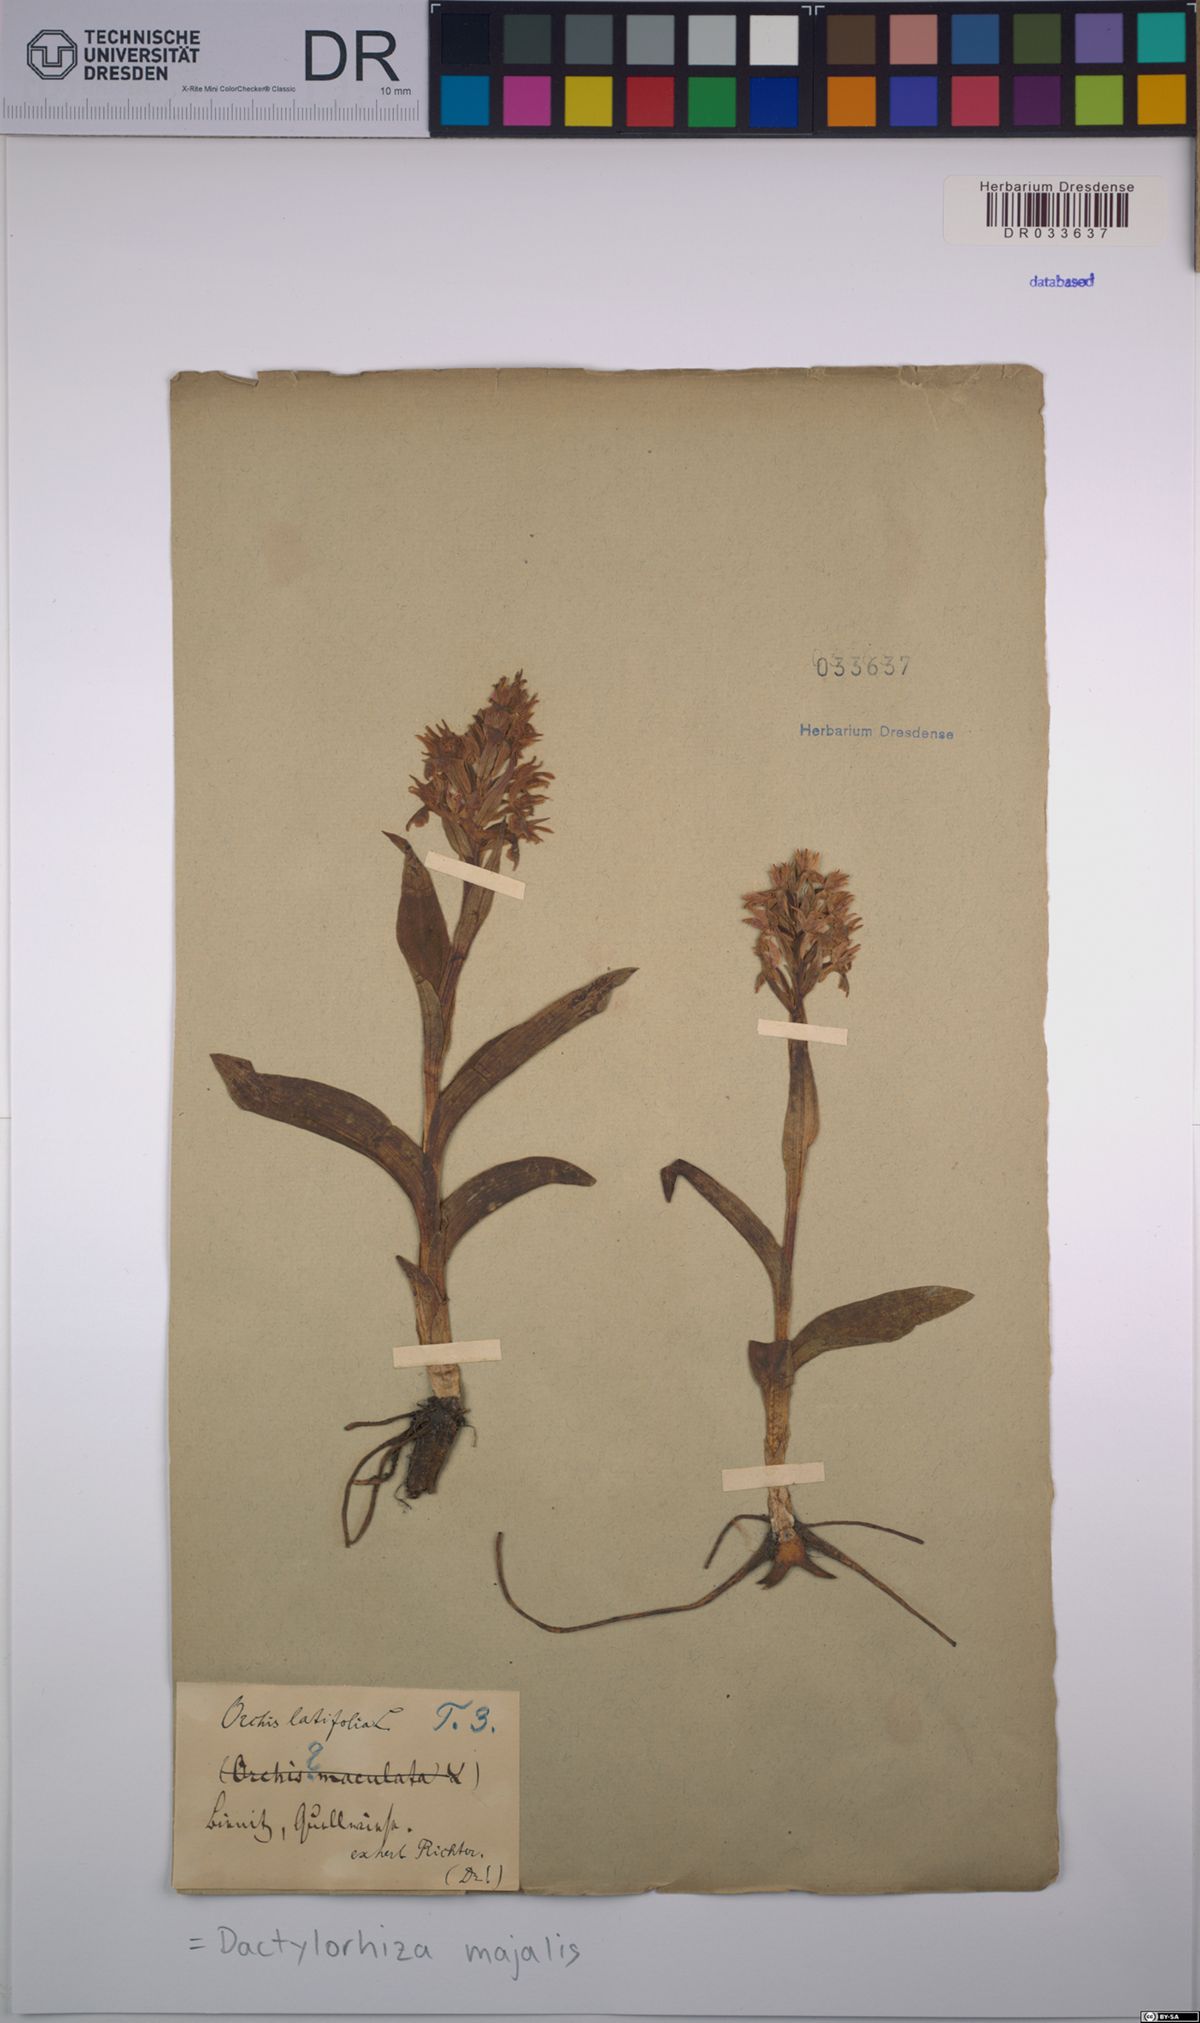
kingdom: Plantae
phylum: Tracheophyta
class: Liliopsida
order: Asparagales
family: Orchidaceae
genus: Dactylorhiza
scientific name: Dactylorhiza majalis
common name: Marsh orchid
